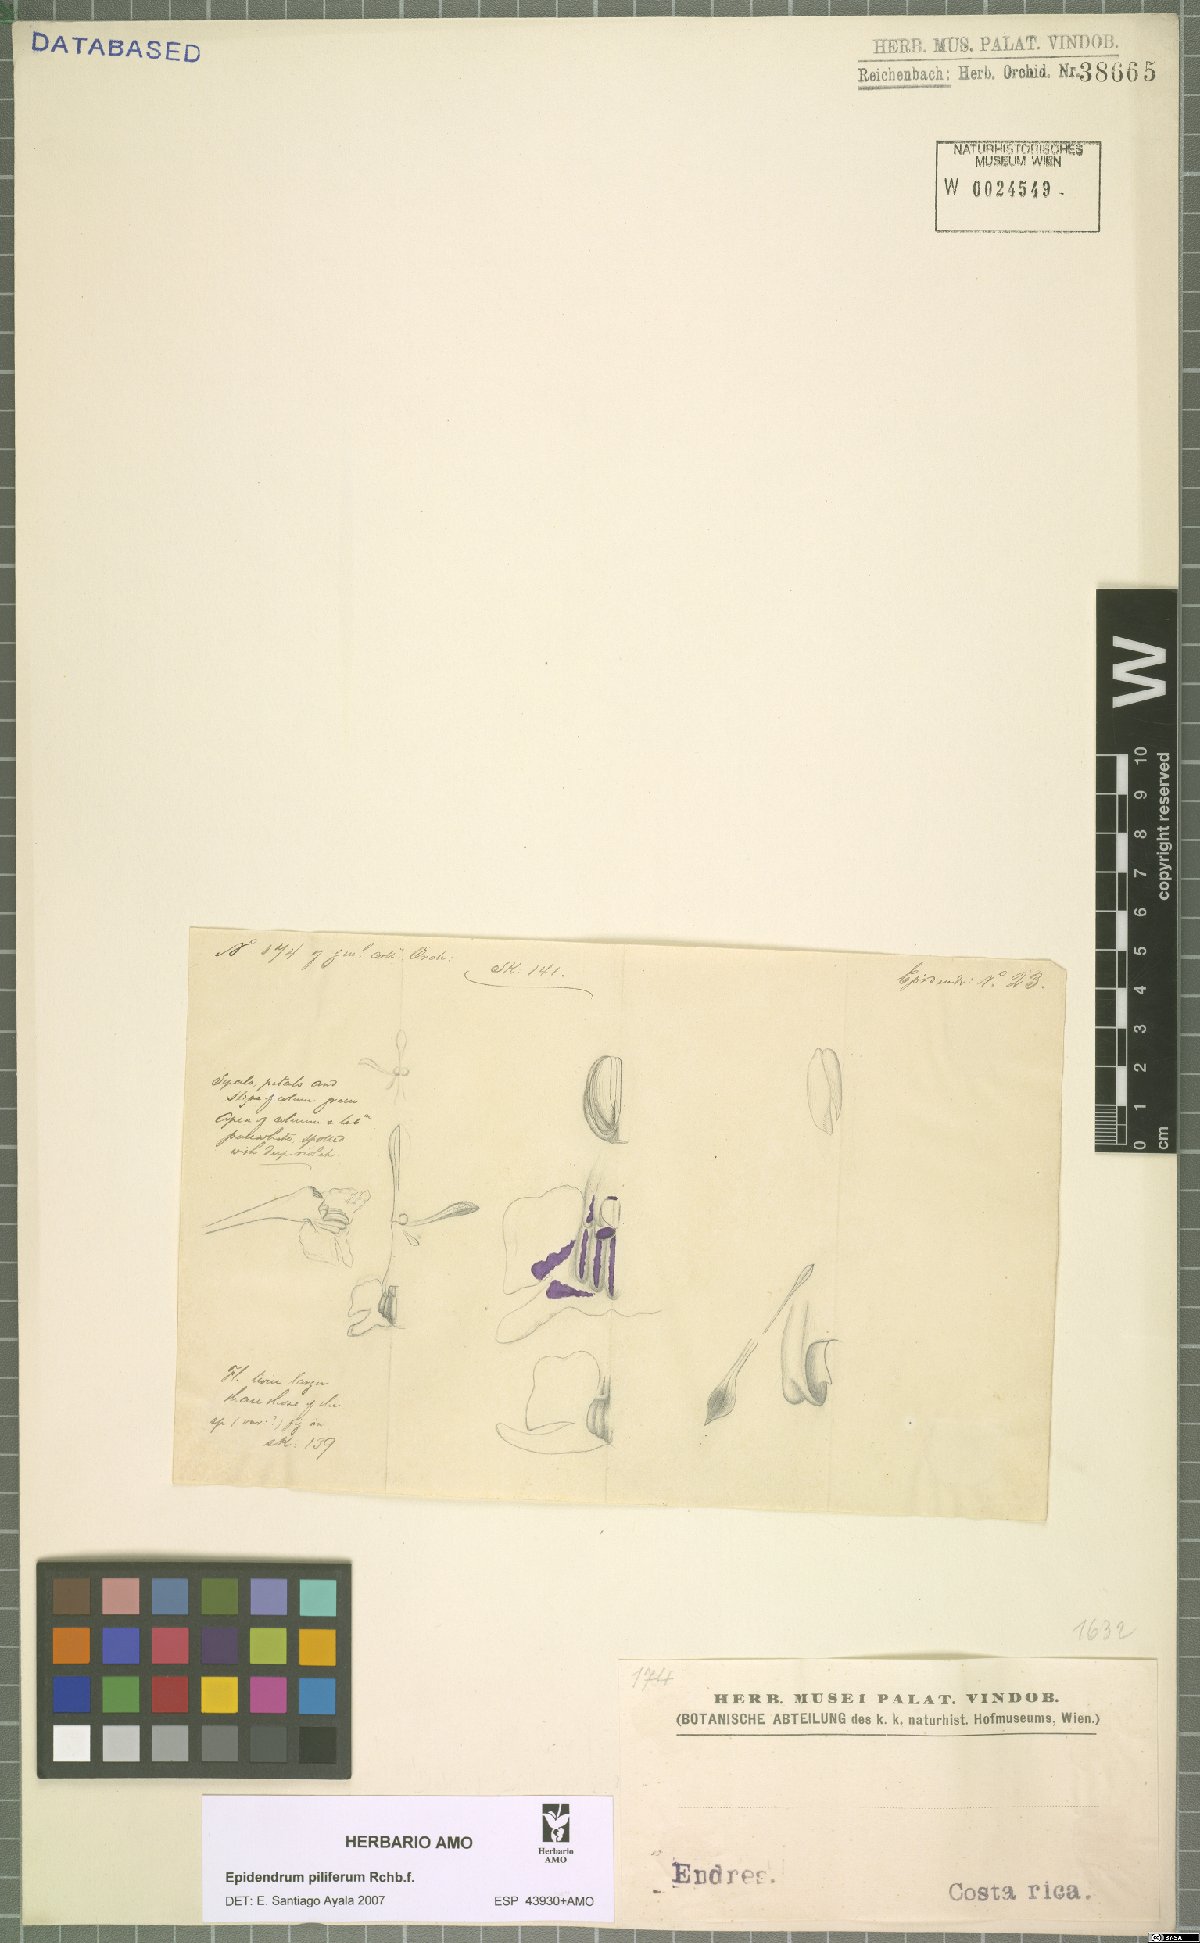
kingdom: Plantae
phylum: Tracheophyta
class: Liliopsida
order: Asparagales
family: Orchidaceae
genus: Epidendrum
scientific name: Epidendrum piliferum
